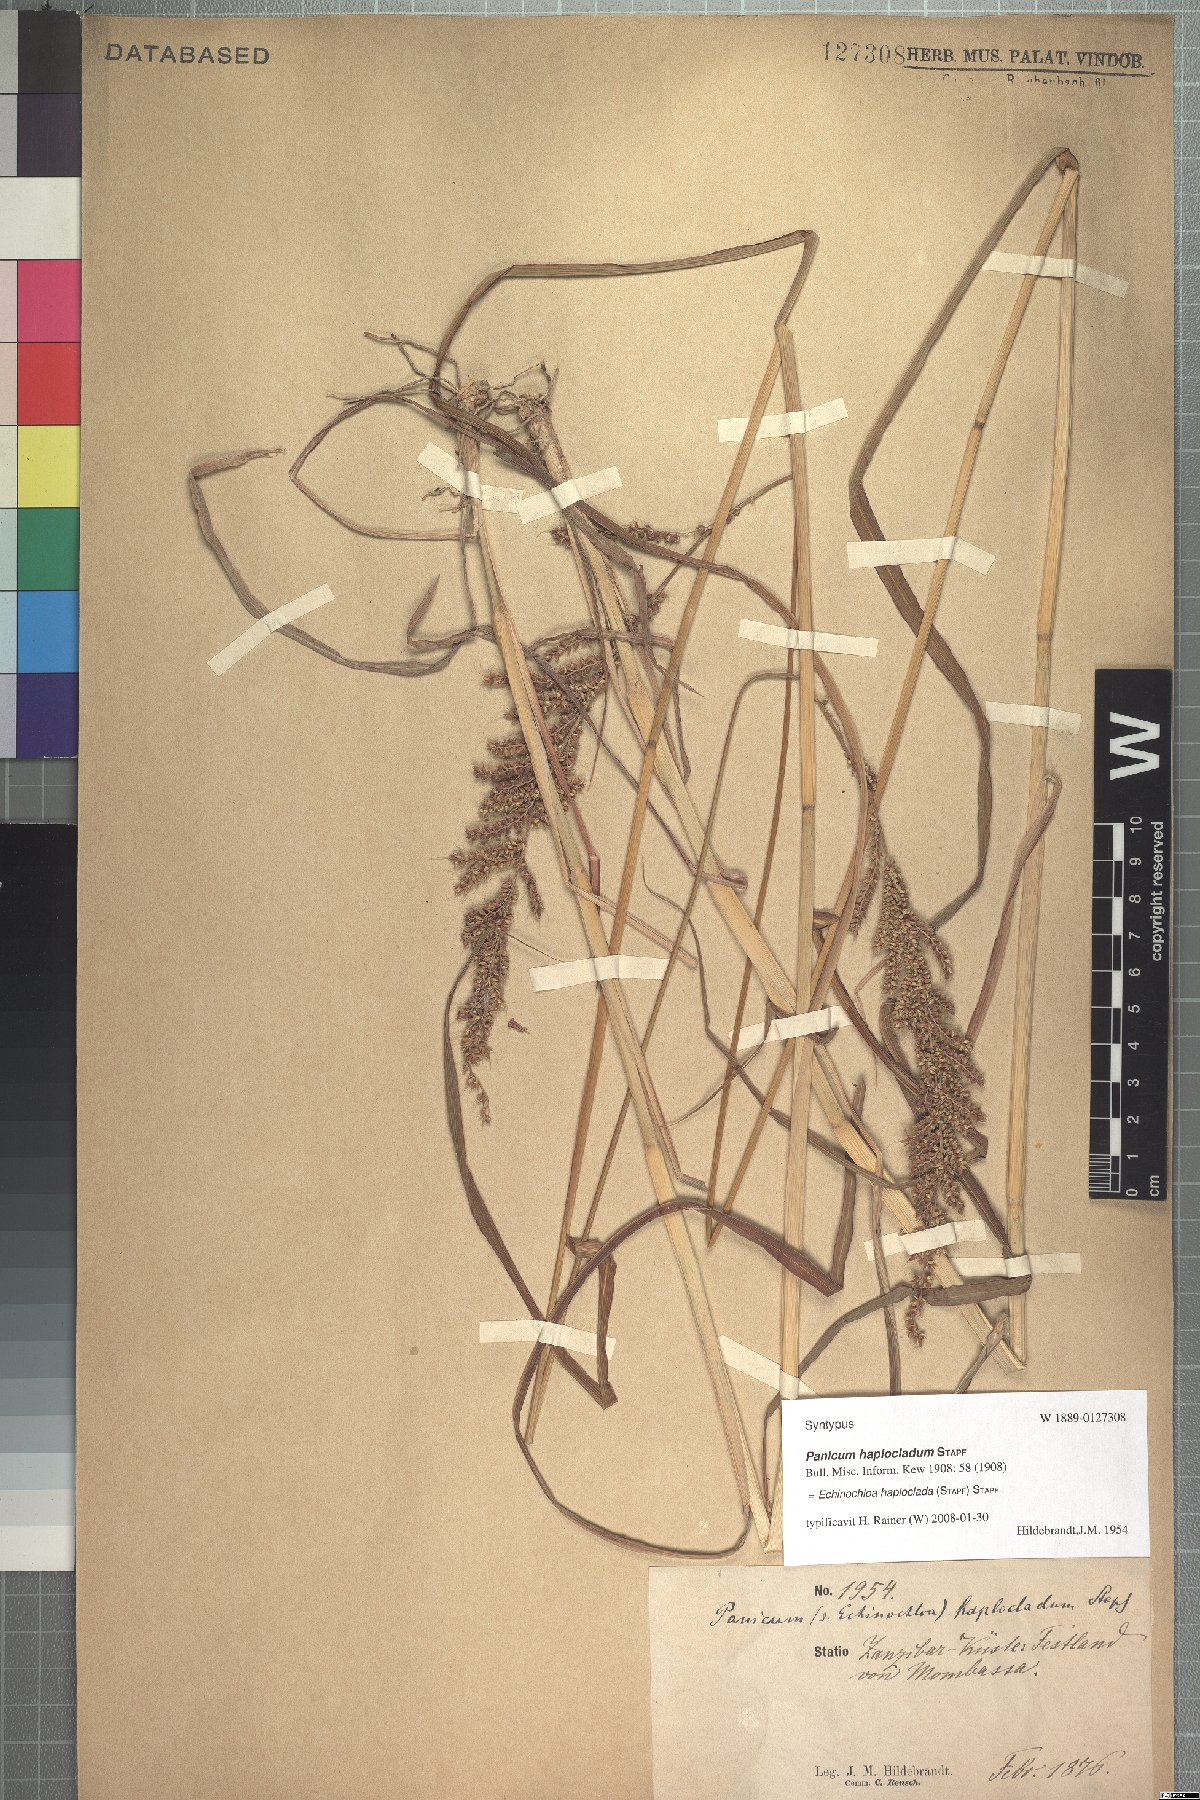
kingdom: Plantae
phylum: Tracheophyta
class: Liliopsida
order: Poales
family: Poaceae
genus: Echinochloa
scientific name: Echinochloa haploclada
